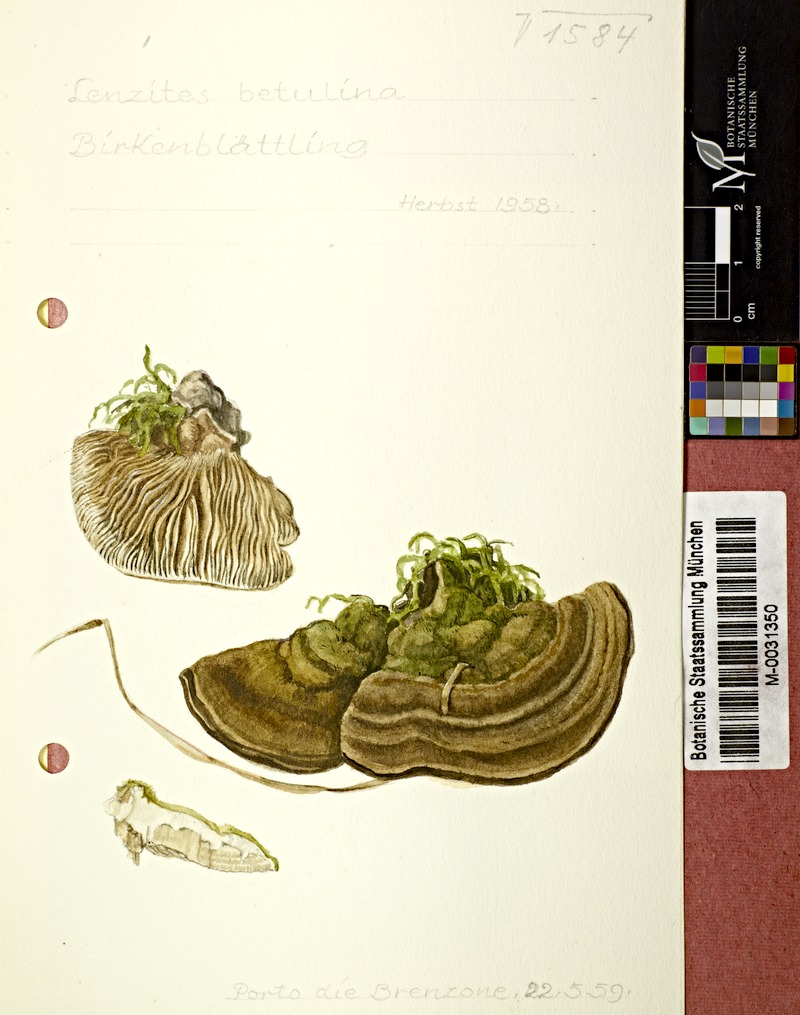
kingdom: Fungi
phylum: Basidiomycota
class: Agaricomycetes
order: Polyporales
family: Polyporaceae
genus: Lenzites
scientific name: Lenzites betulinus
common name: Birch mazegill
